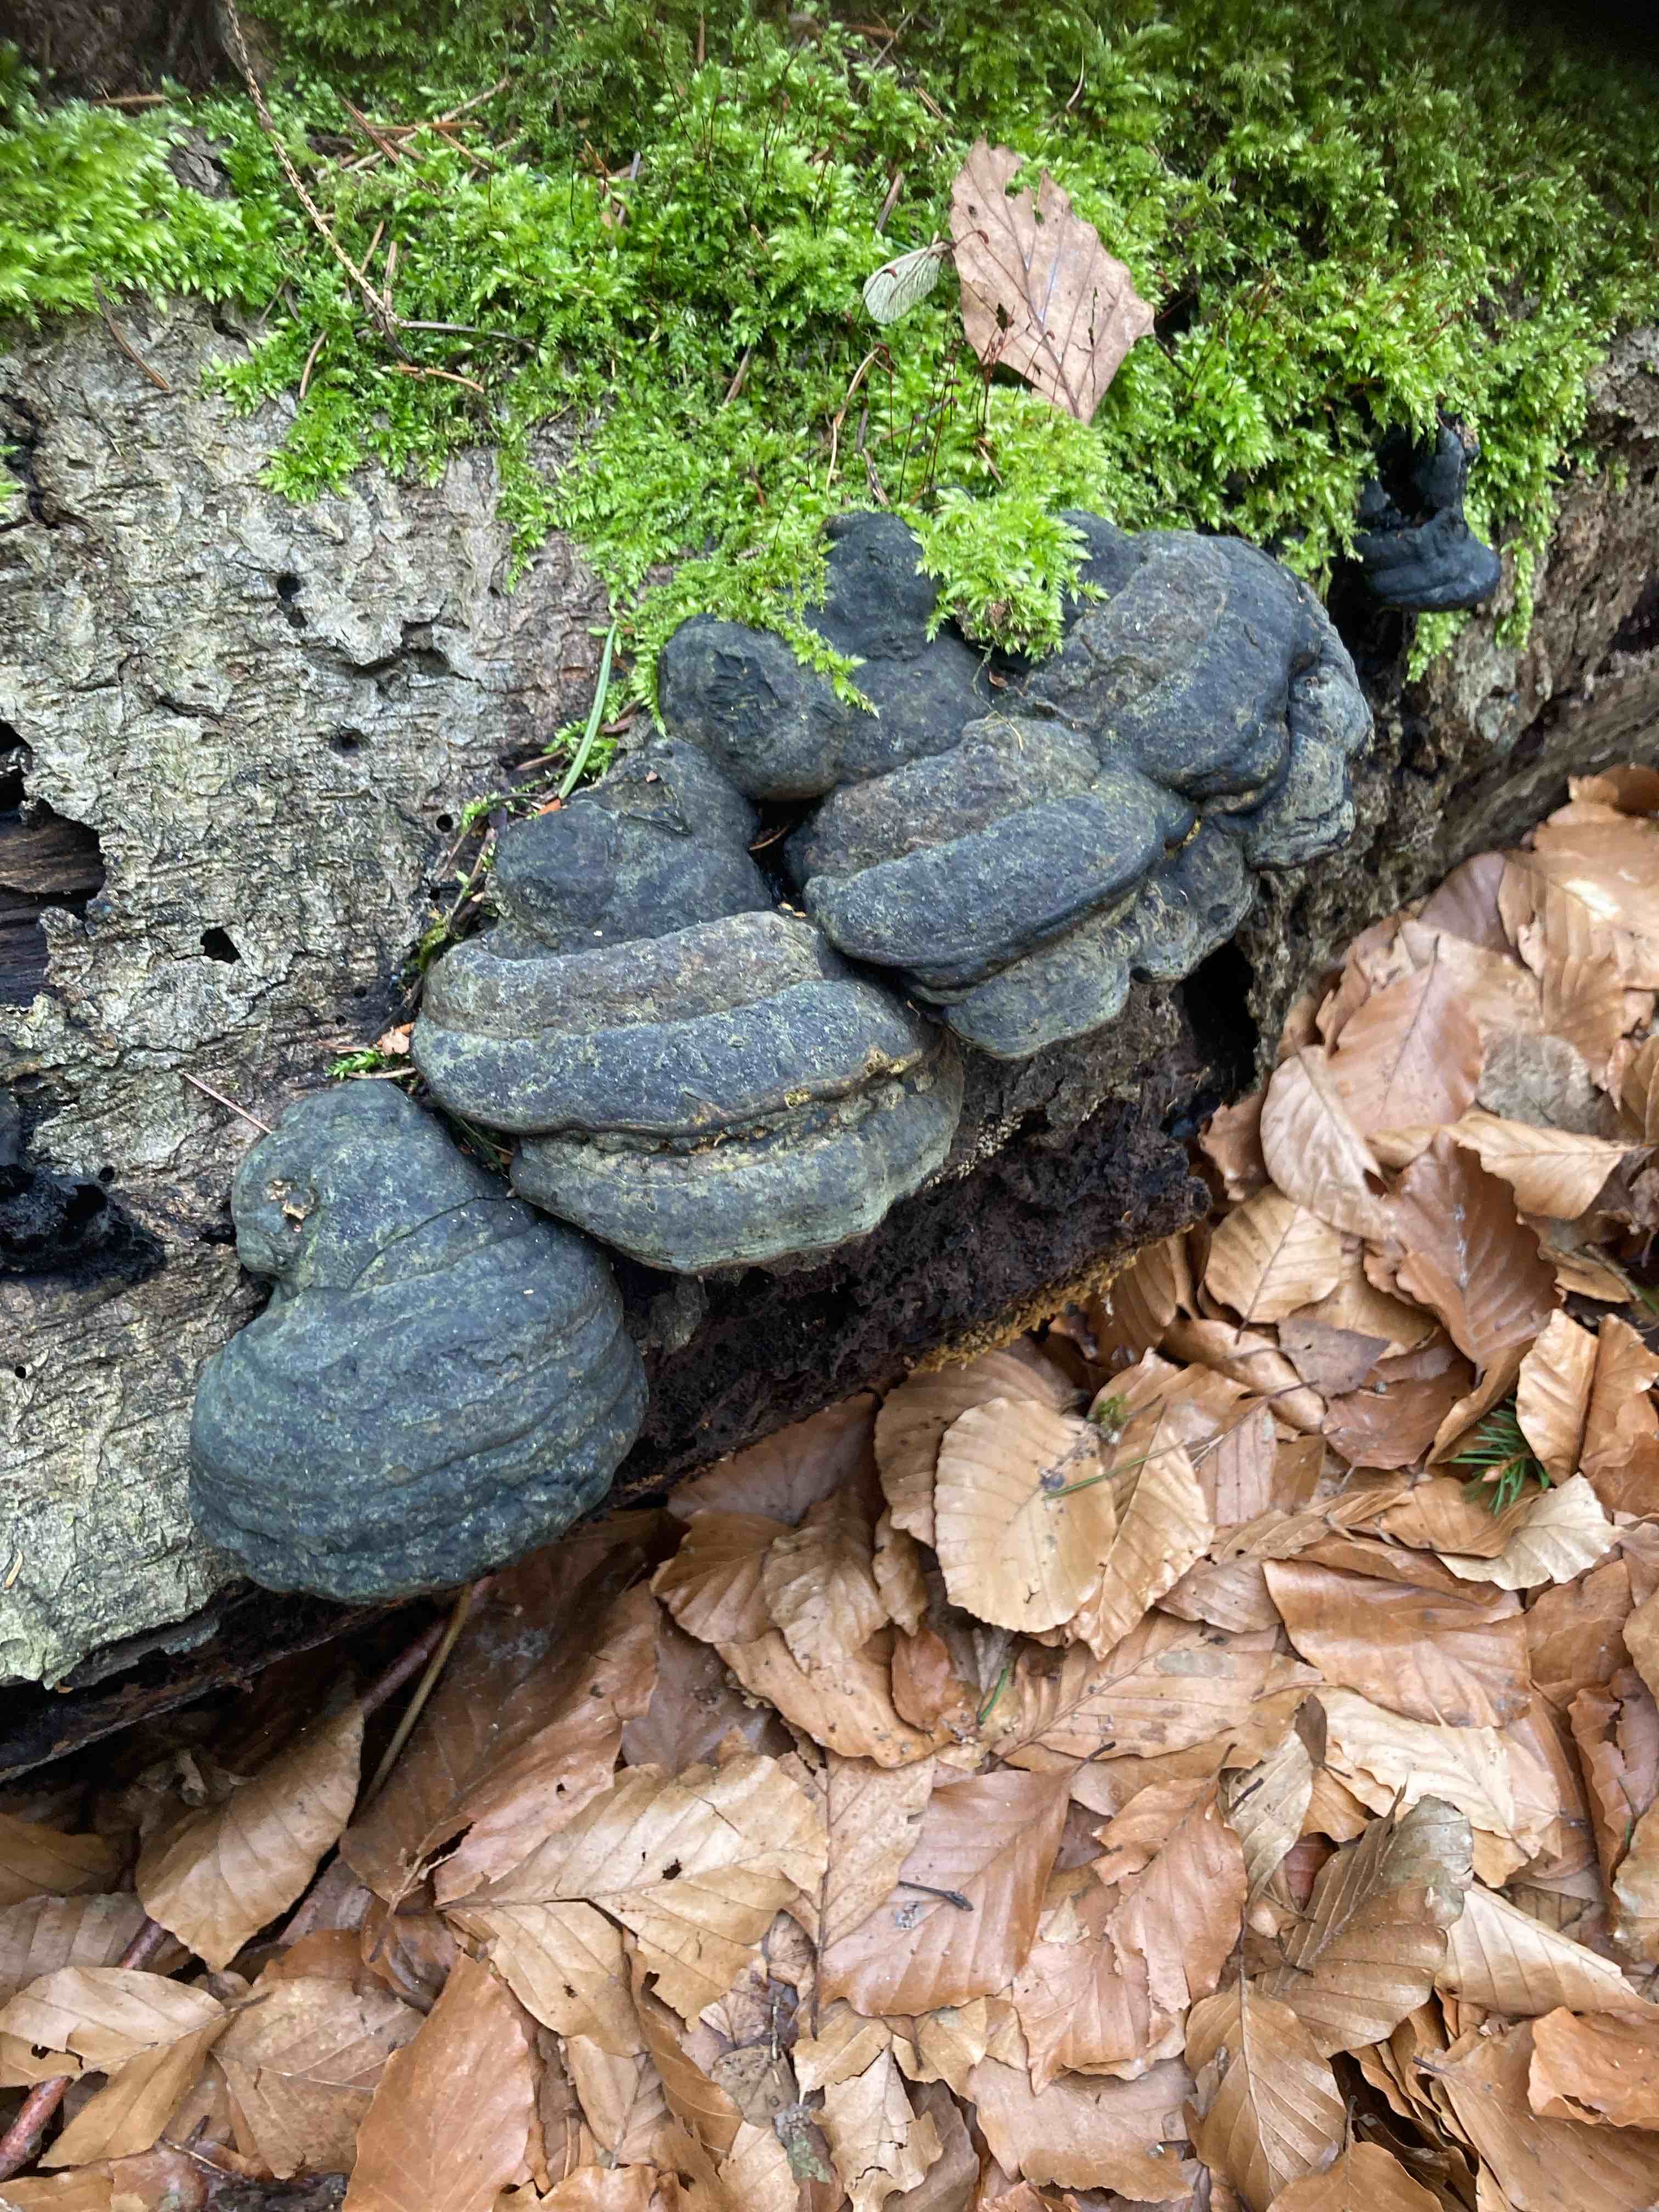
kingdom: Fungi
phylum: Basidiomycota
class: Agaricomycetes
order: Polyporales
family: Polyporaceae
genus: Fomes
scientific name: Fomes fomentarius
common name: tøndersvamp
